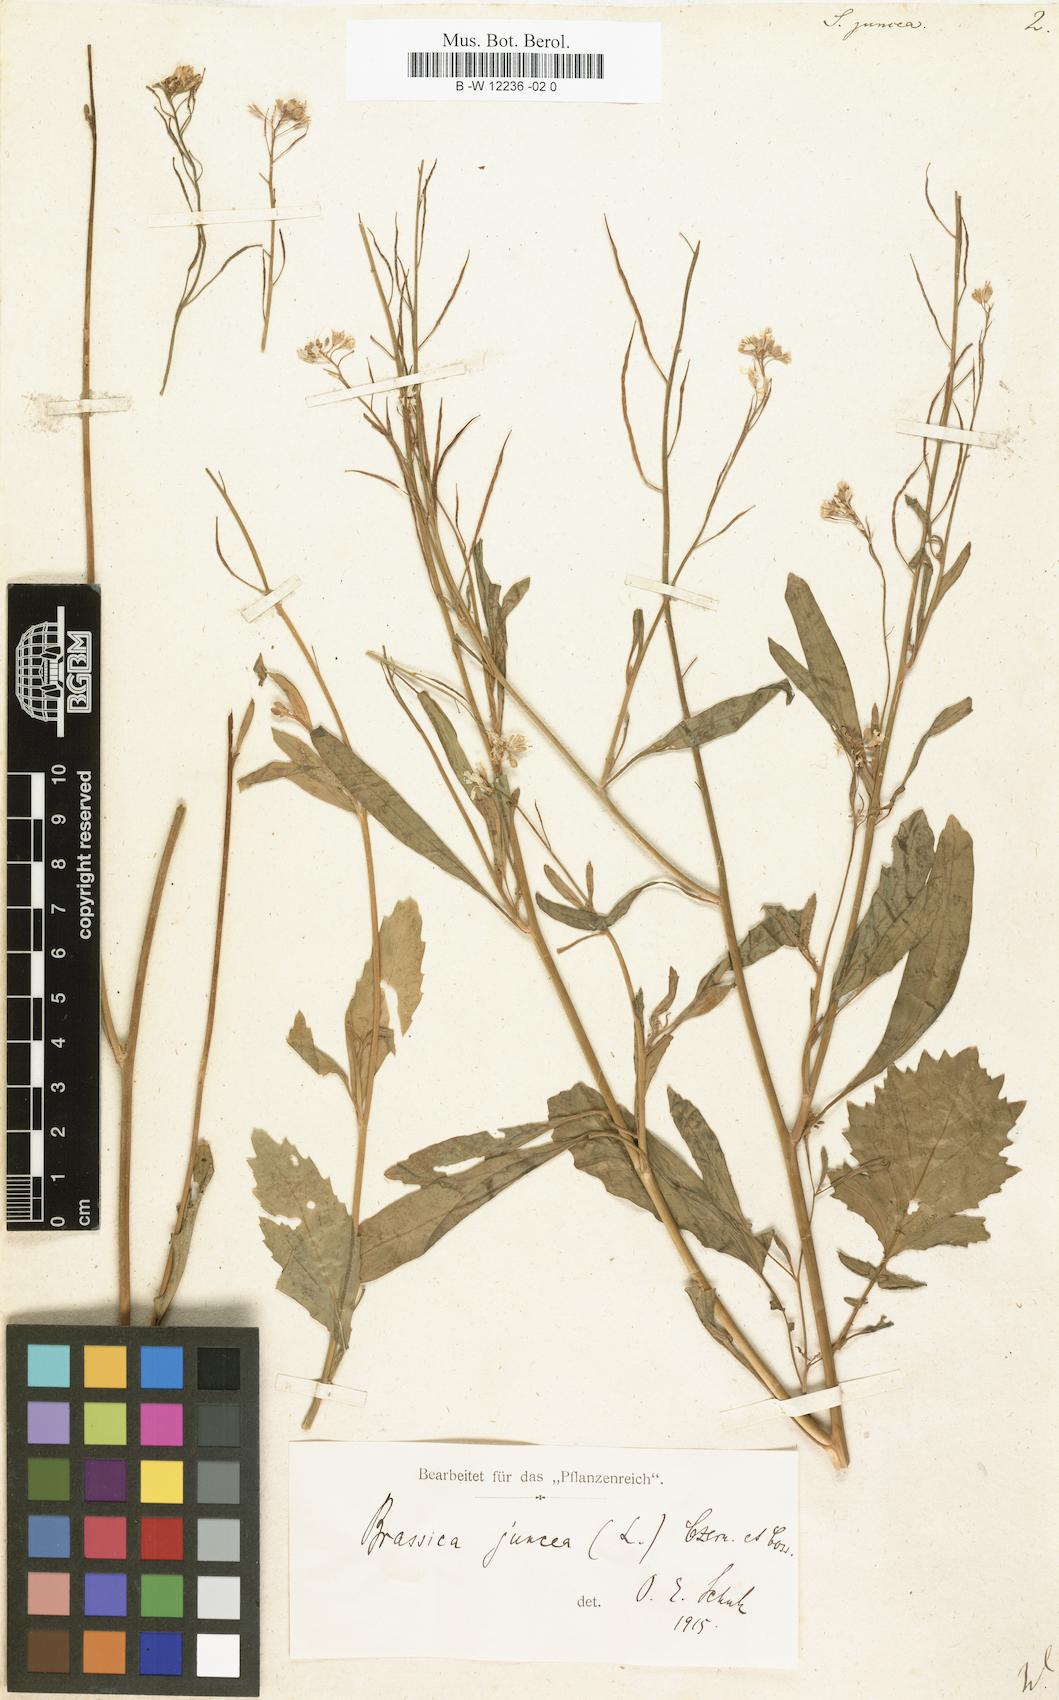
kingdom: Plantae
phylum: Tracheophyta
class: Magnoliopsida
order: Brassicales
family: Brassicaceae
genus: Brassica
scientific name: Brassica juncea
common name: Brown mustard
